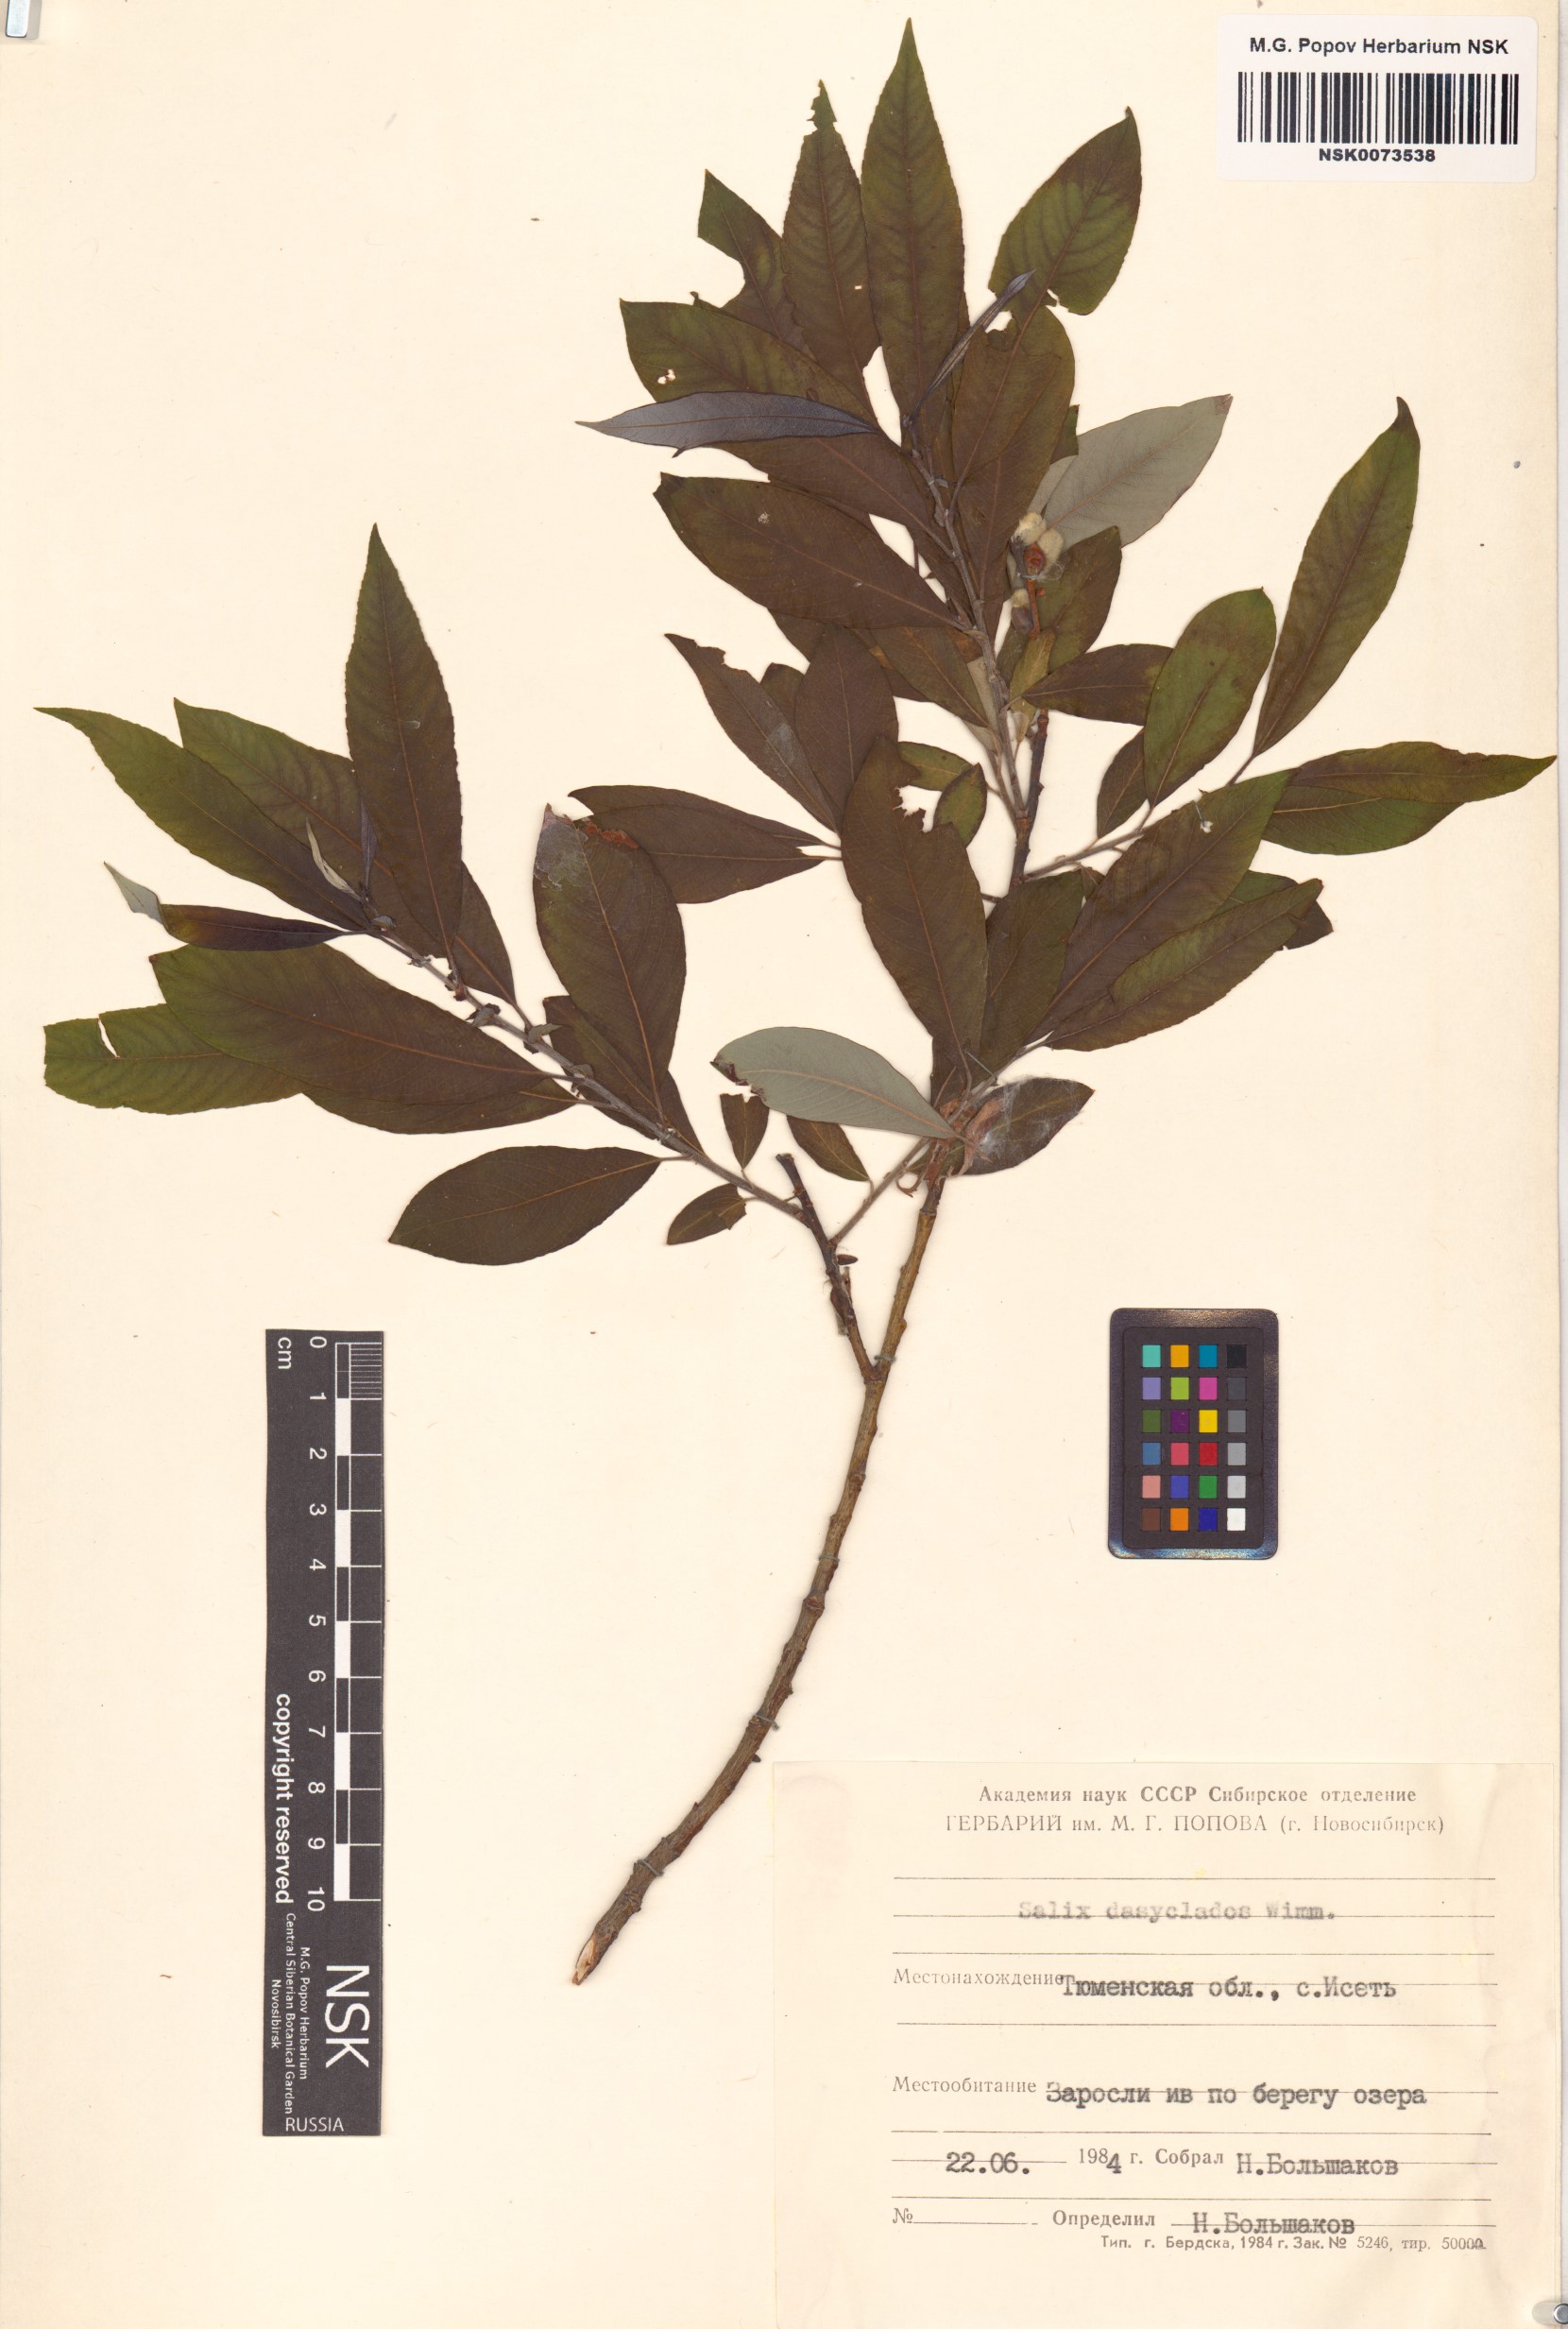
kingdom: Plantae
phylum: Tracheophyta
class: Magnoliopsida
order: Malpighiales
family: Salicaceae
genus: Salix
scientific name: Salix gmelinii
